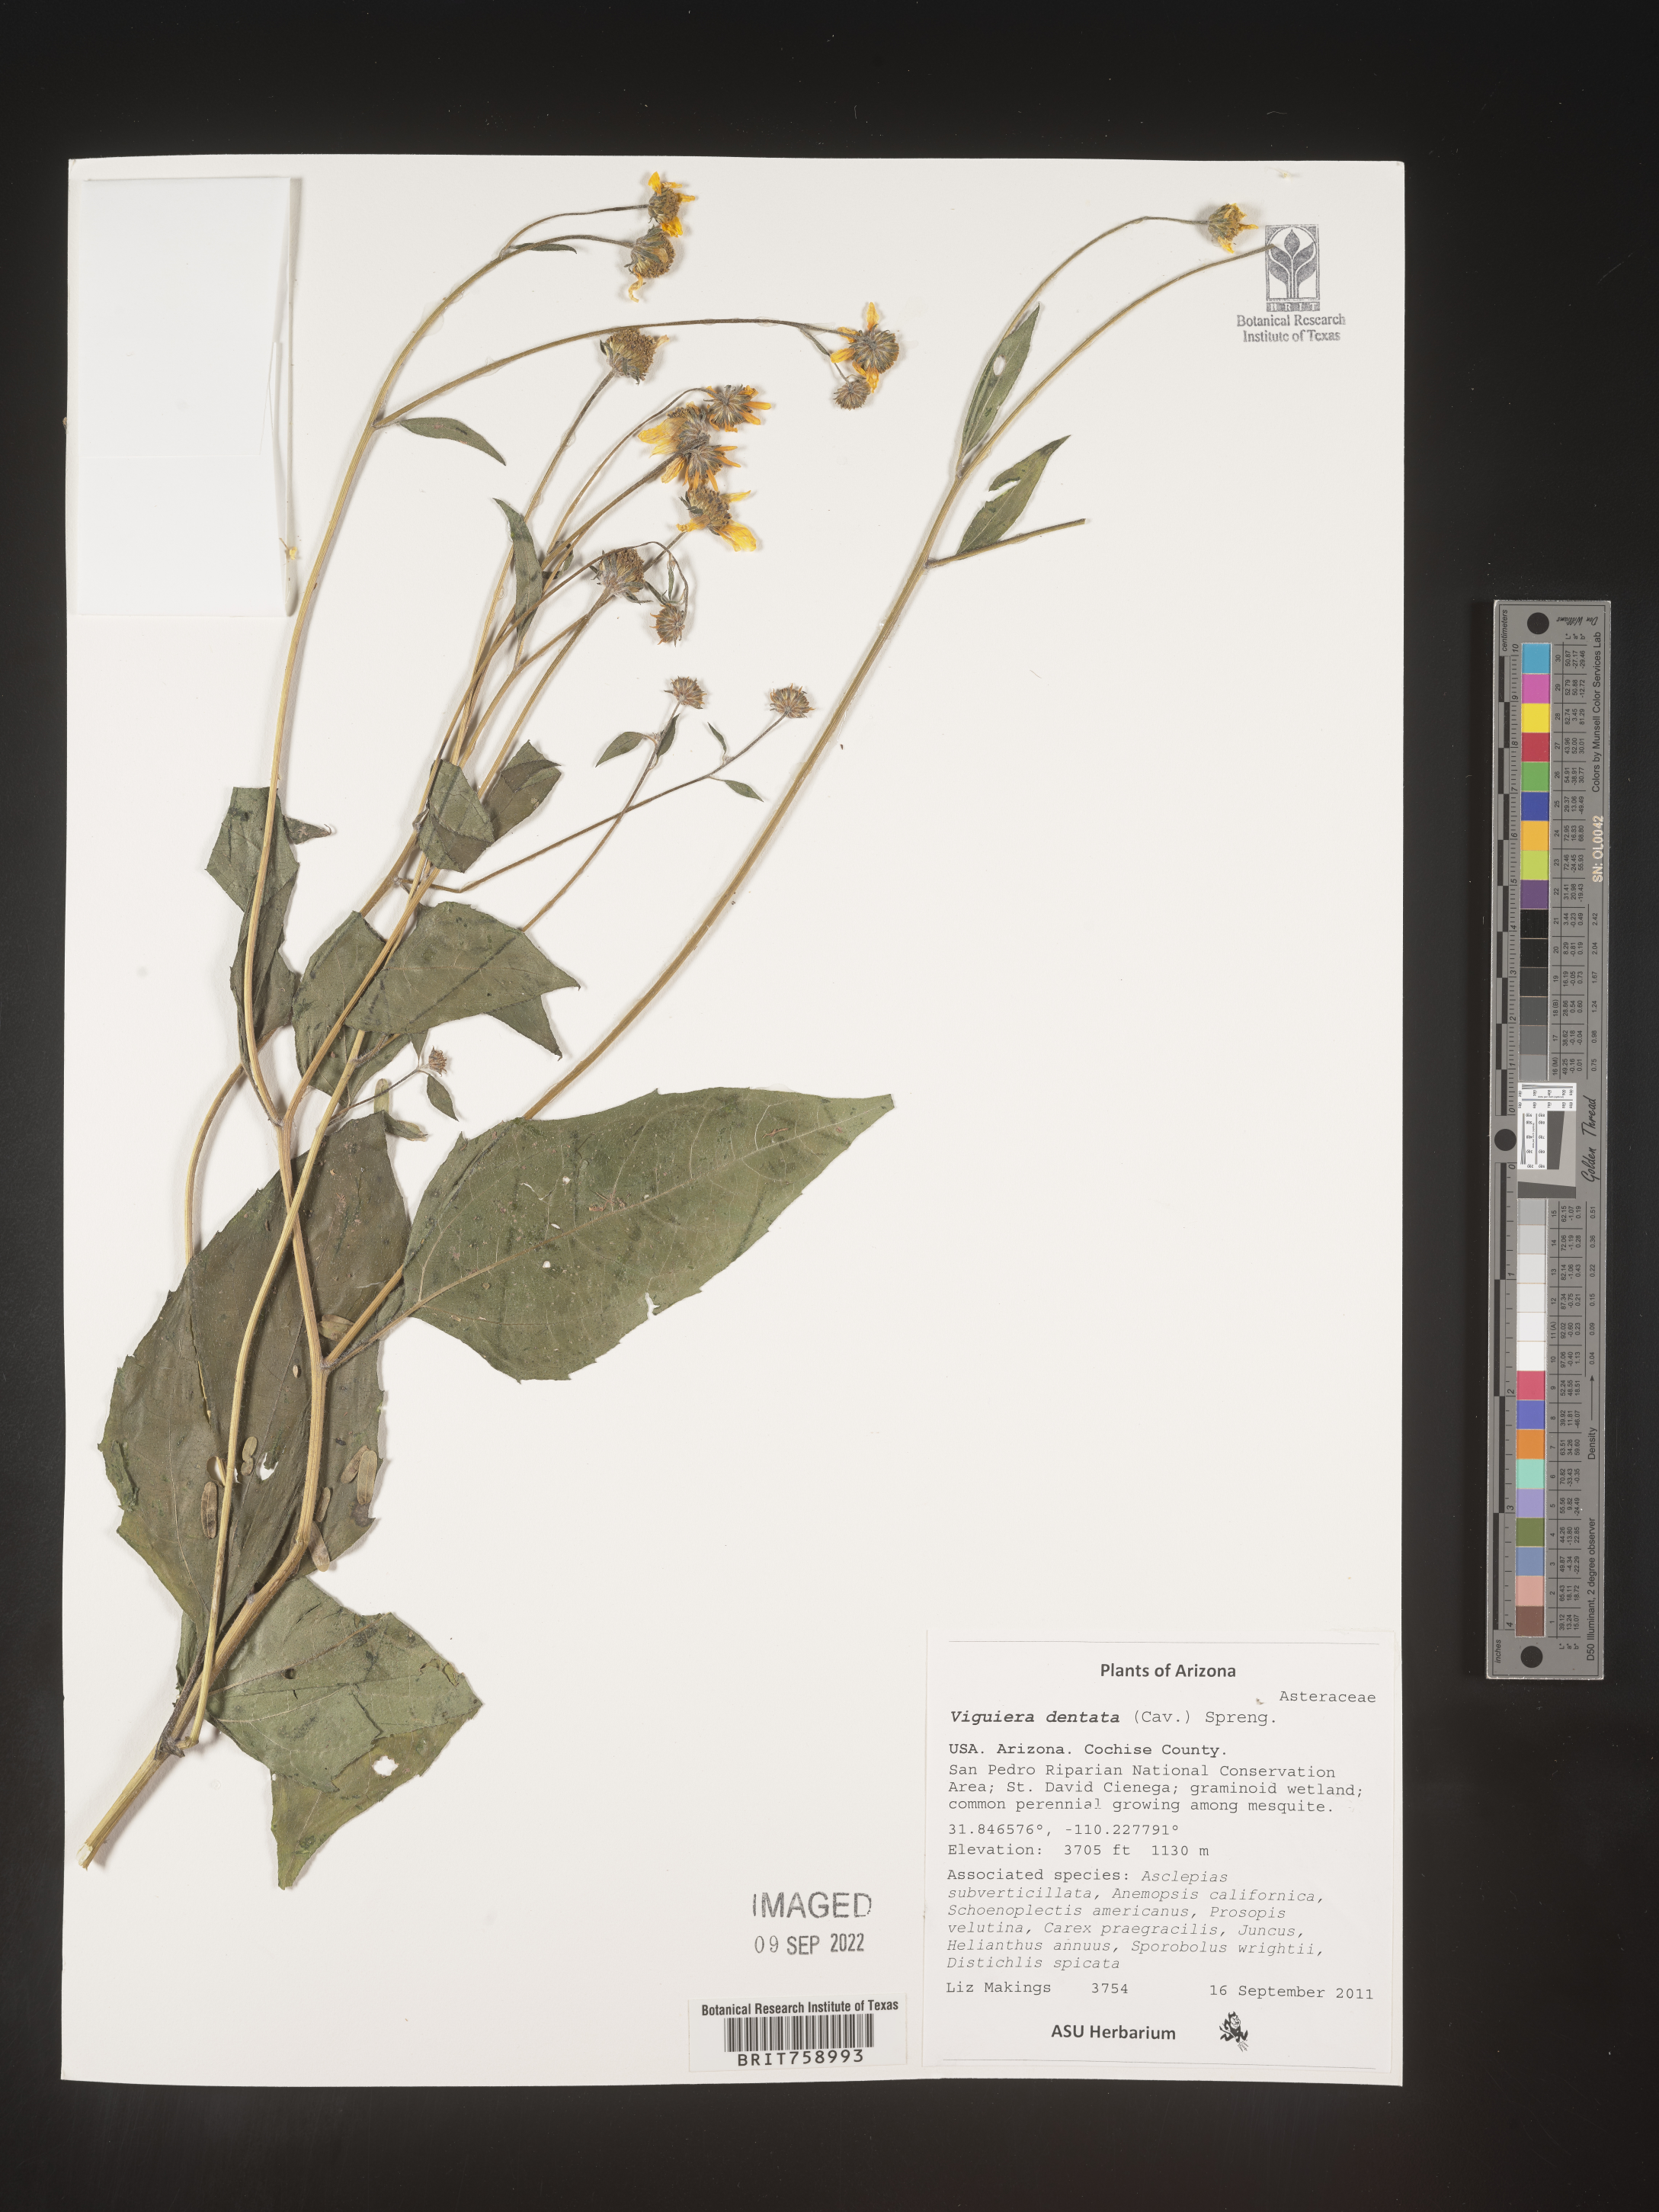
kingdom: Plantae
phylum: Tracheophyta
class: Magnoliopsida
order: Asterales
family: Asteraceae
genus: Viguiera
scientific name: Viguiera
